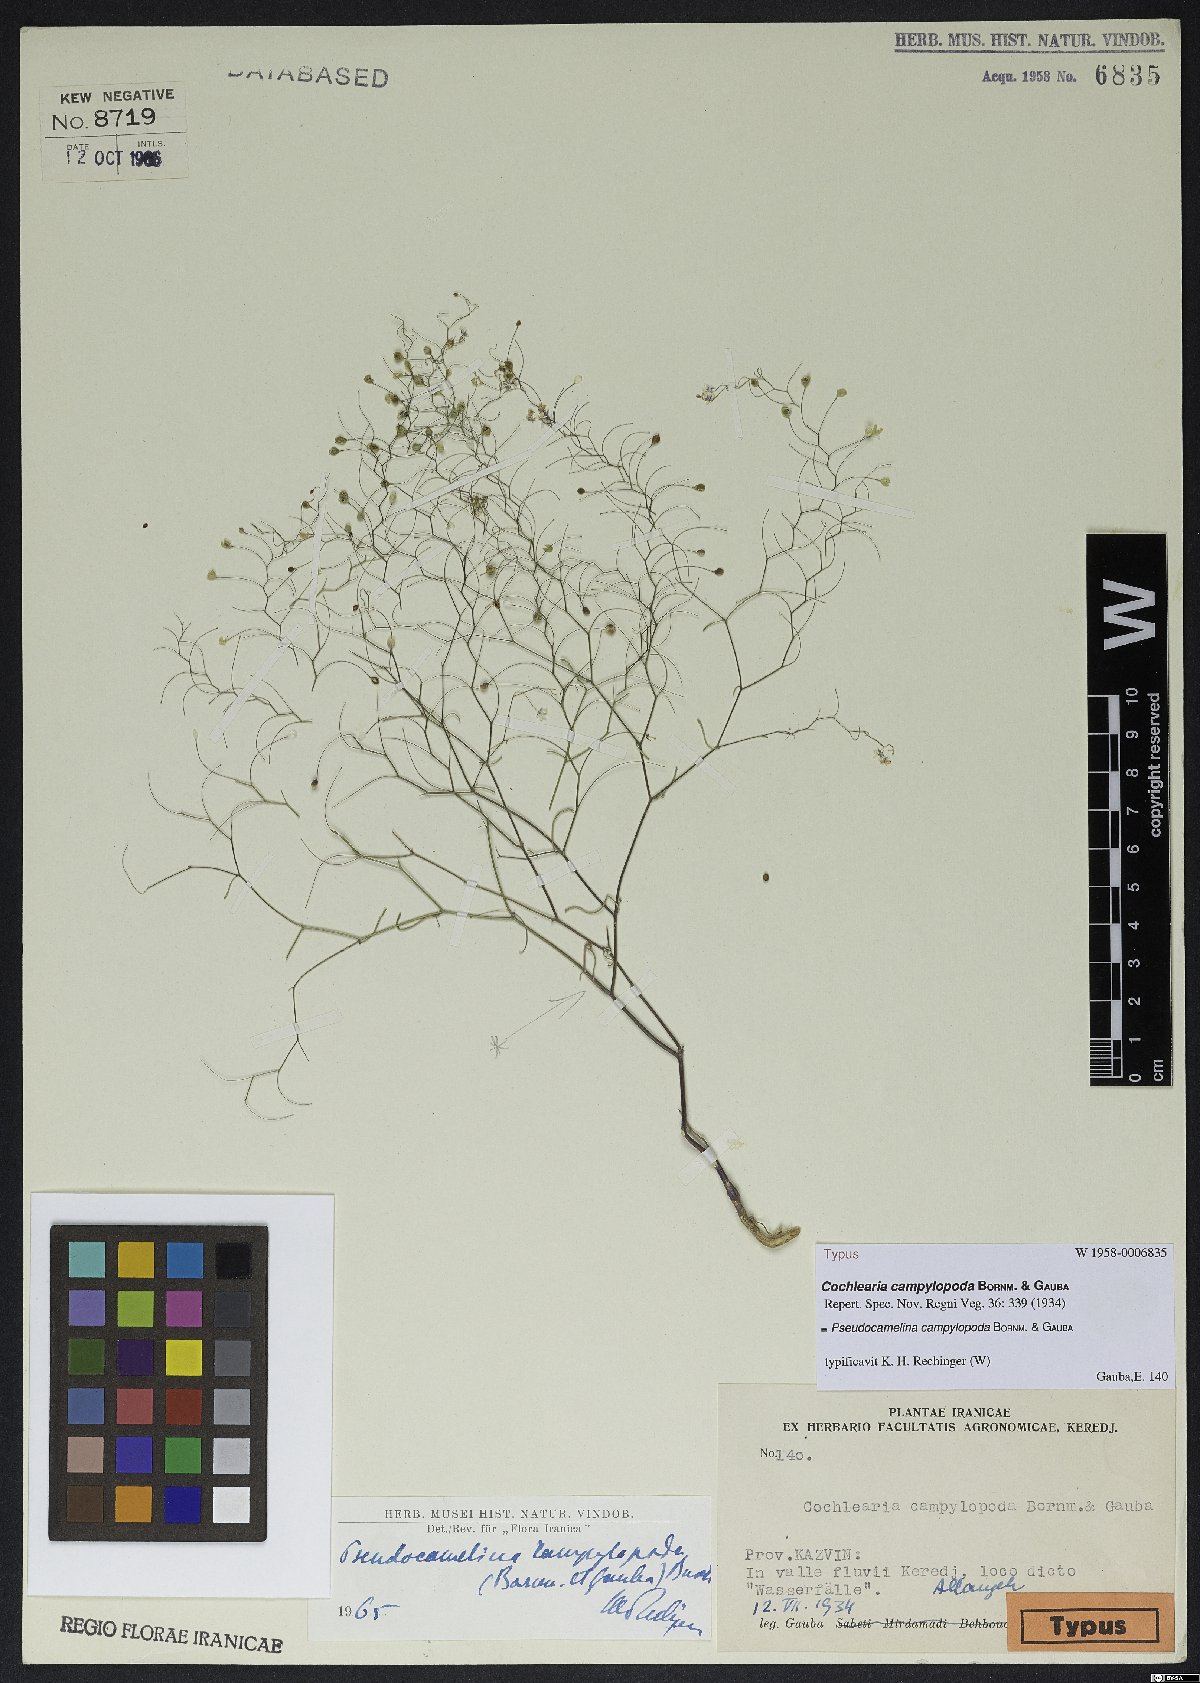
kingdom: Plantae
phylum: Tracheophyta
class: Magnoliopsida
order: Brassicales
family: Brassicaceae
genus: Pseudocamelina
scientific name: Pseudocamelina campylopoda
